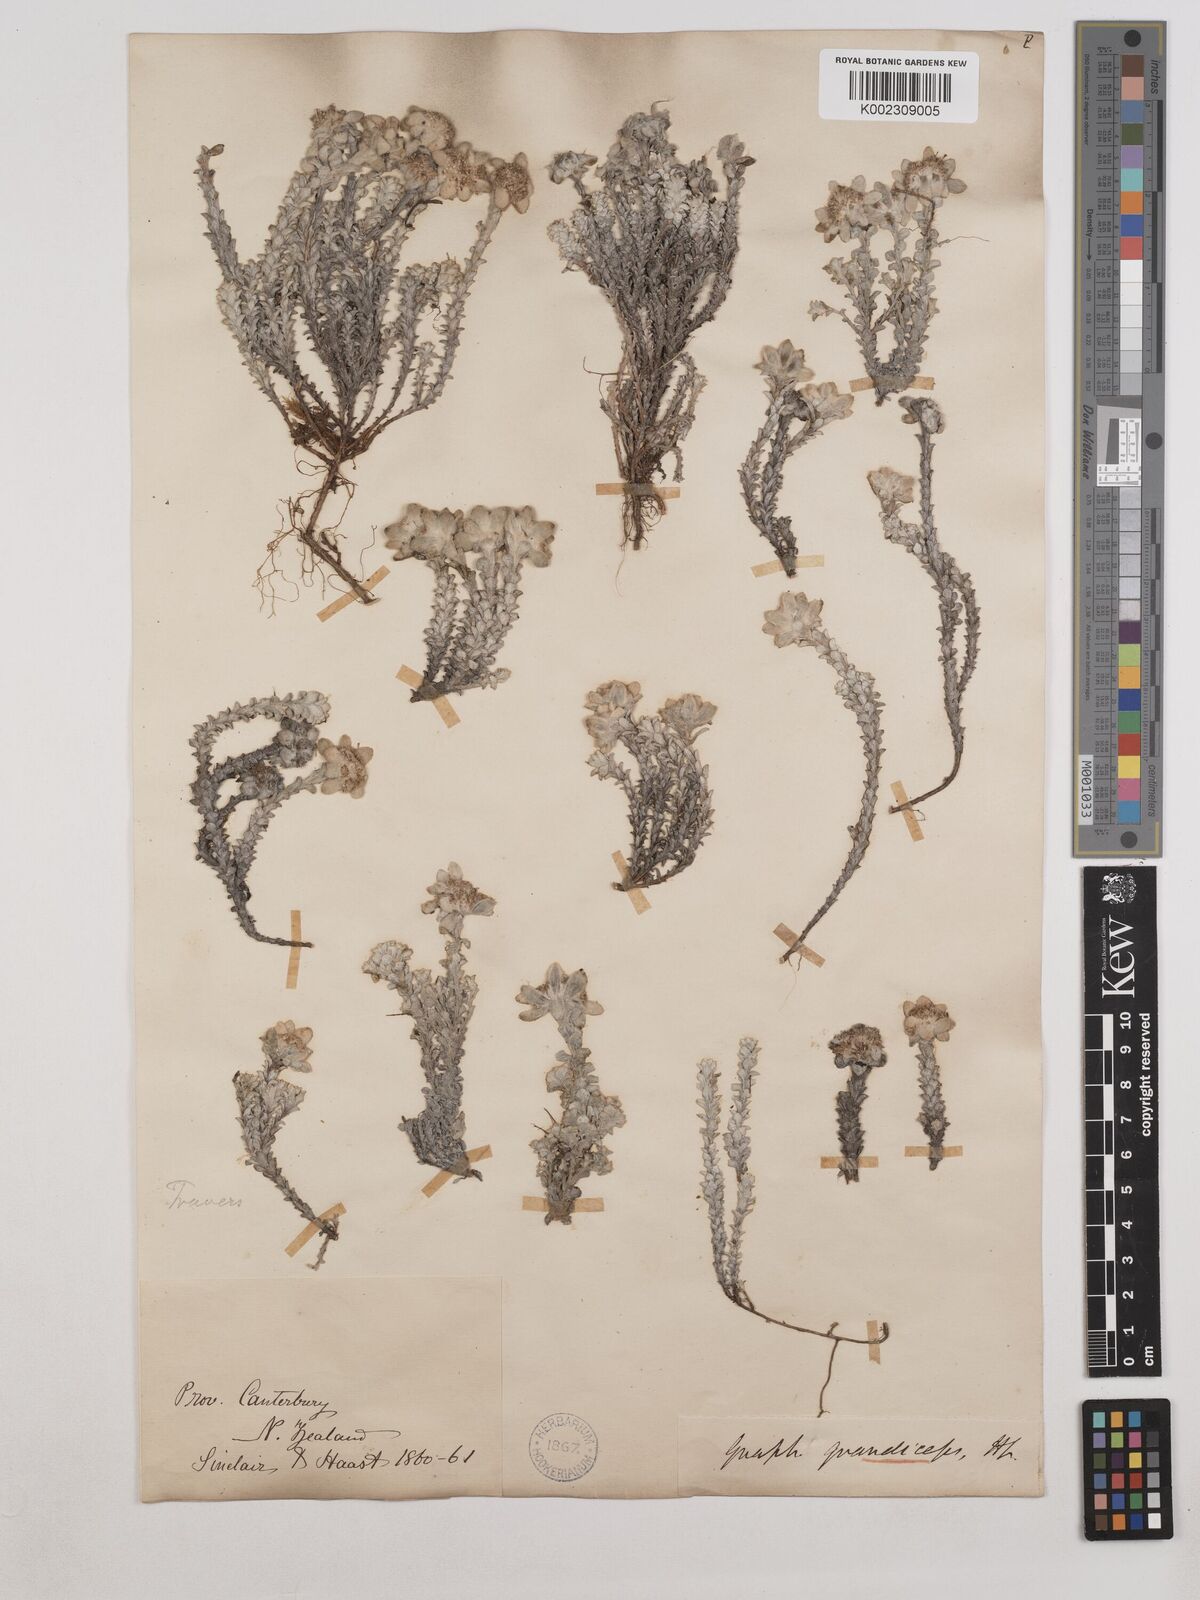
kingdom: Plantae
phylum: Tracheophyta
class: Magnoliopsida
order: Asterales
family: Asteraceae
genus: Leucogenes
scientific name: Leucogenes grandiceps
